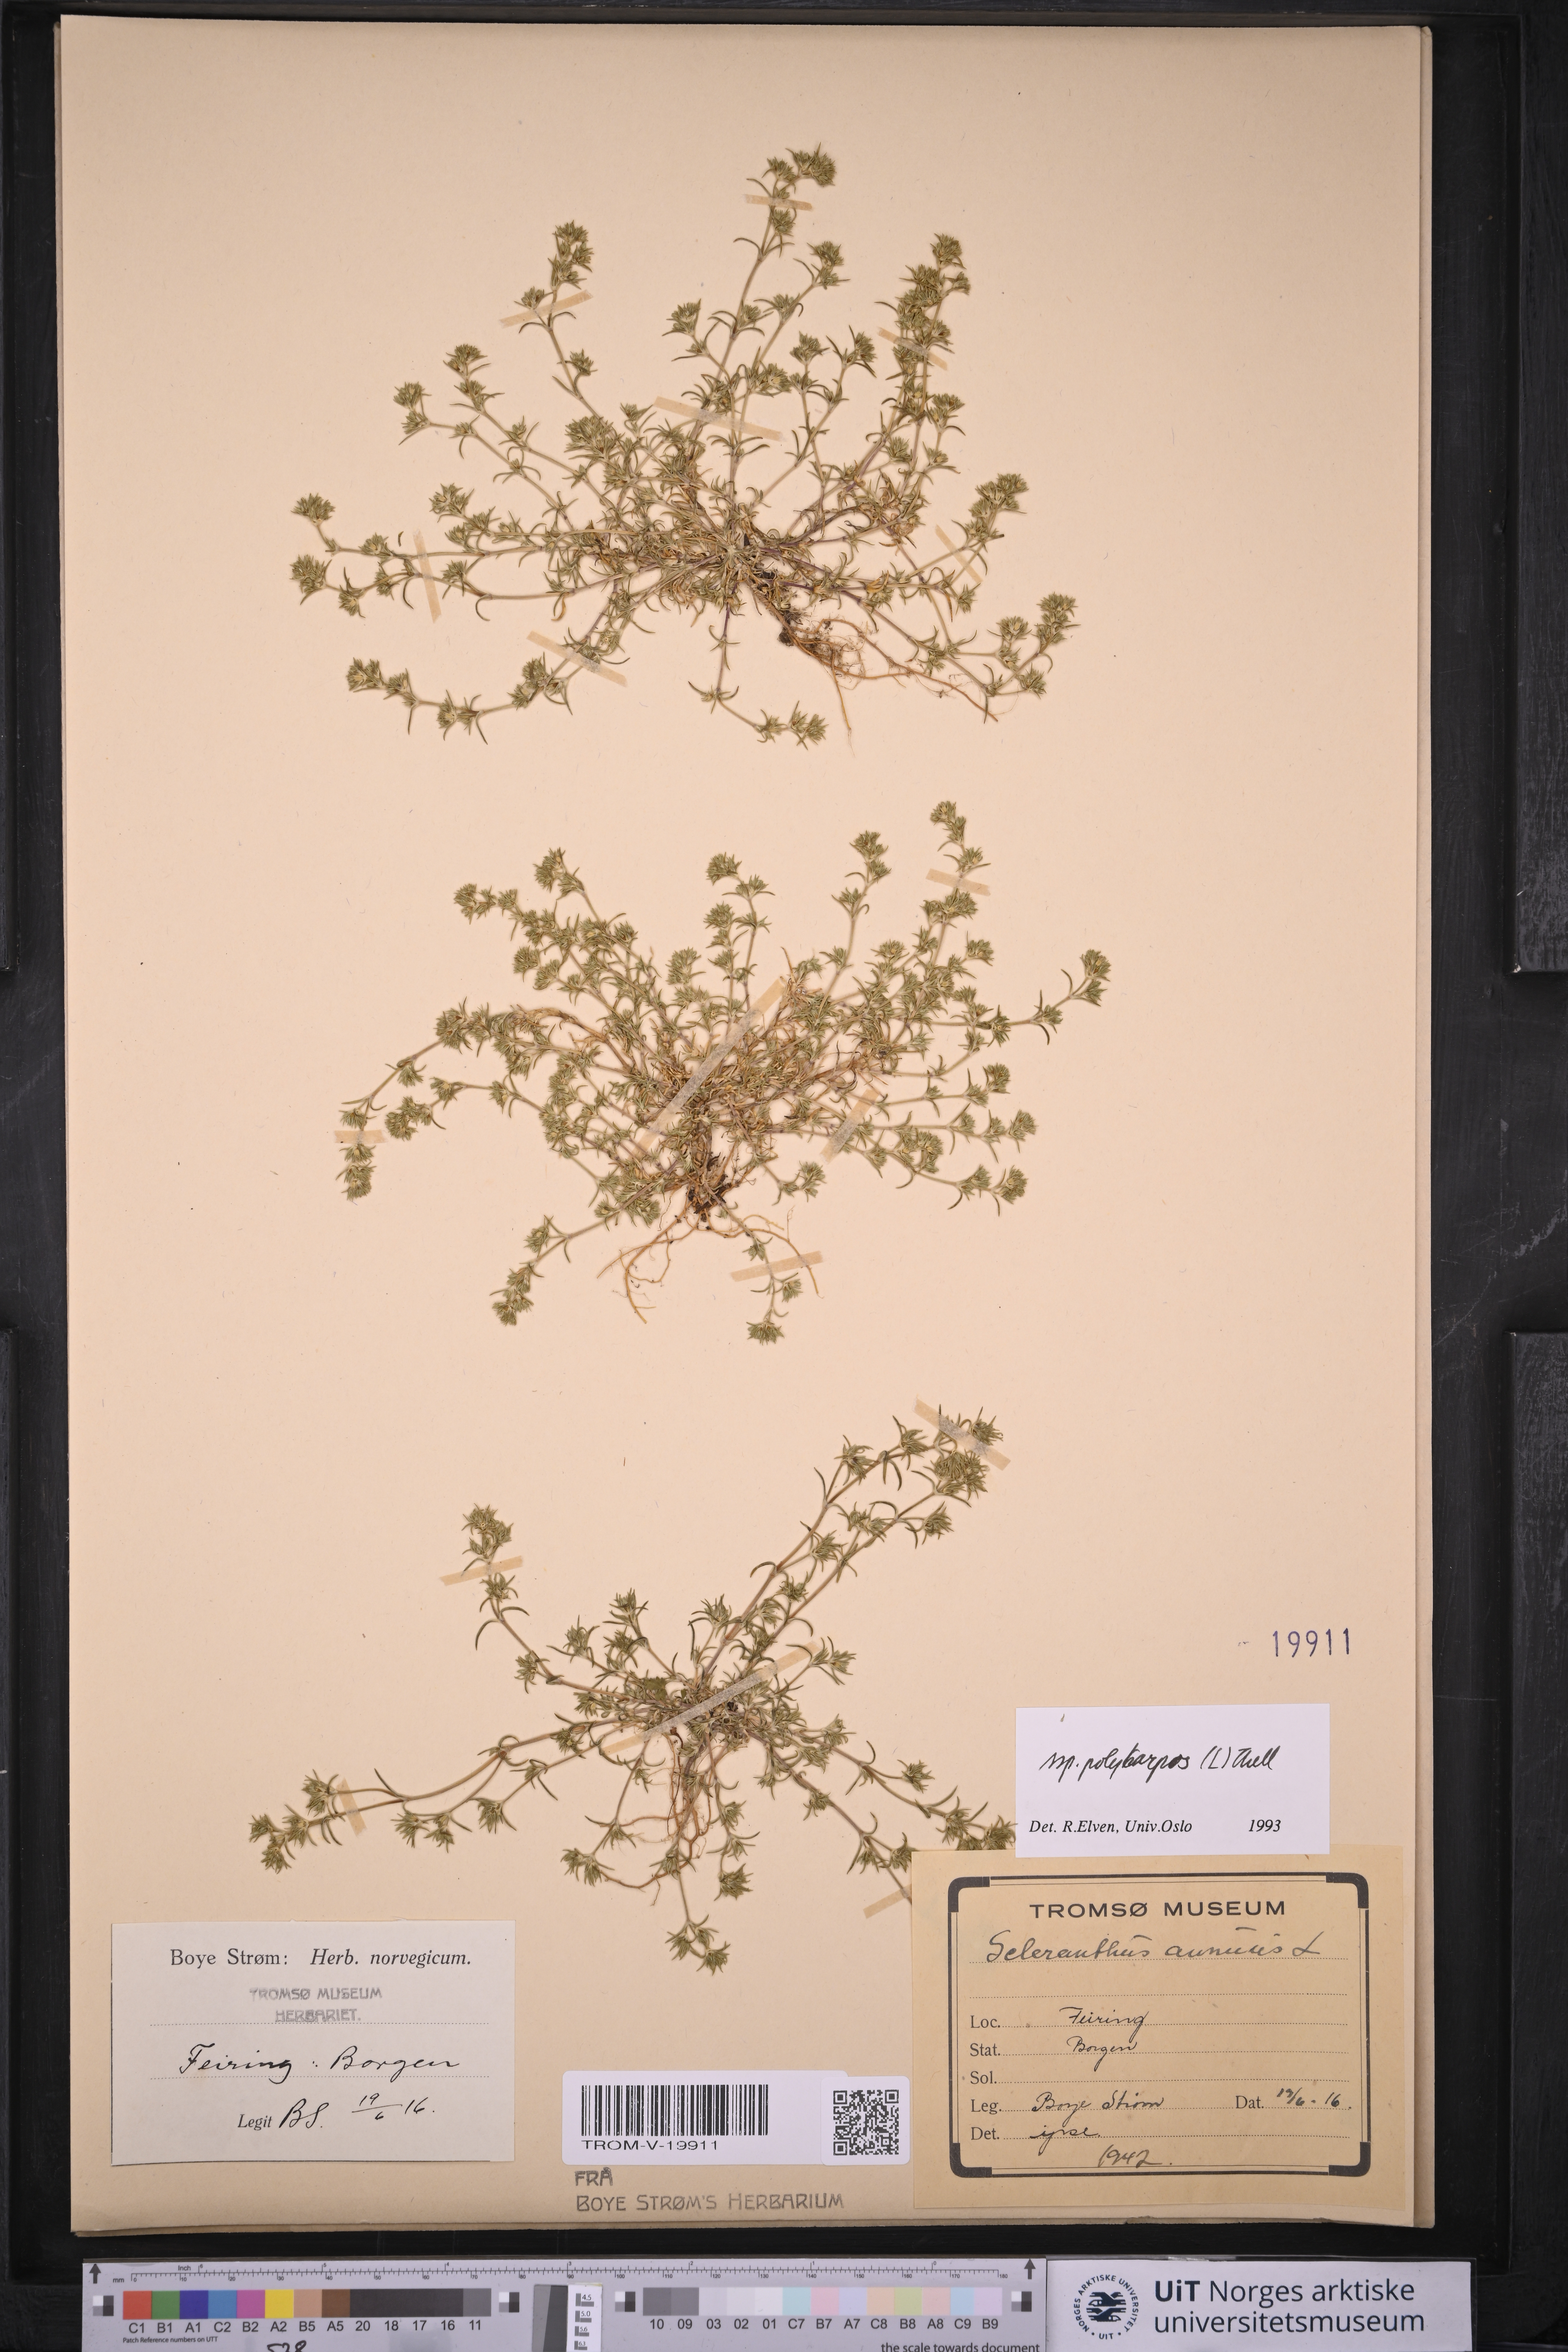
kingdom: Plantae
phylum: Tracheophyta
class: Magnoliopsida
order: Caryophyllales
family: Caryophyllaceae
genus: Scleranthus
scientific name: Scleranthus annuus
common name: Annual knawel
